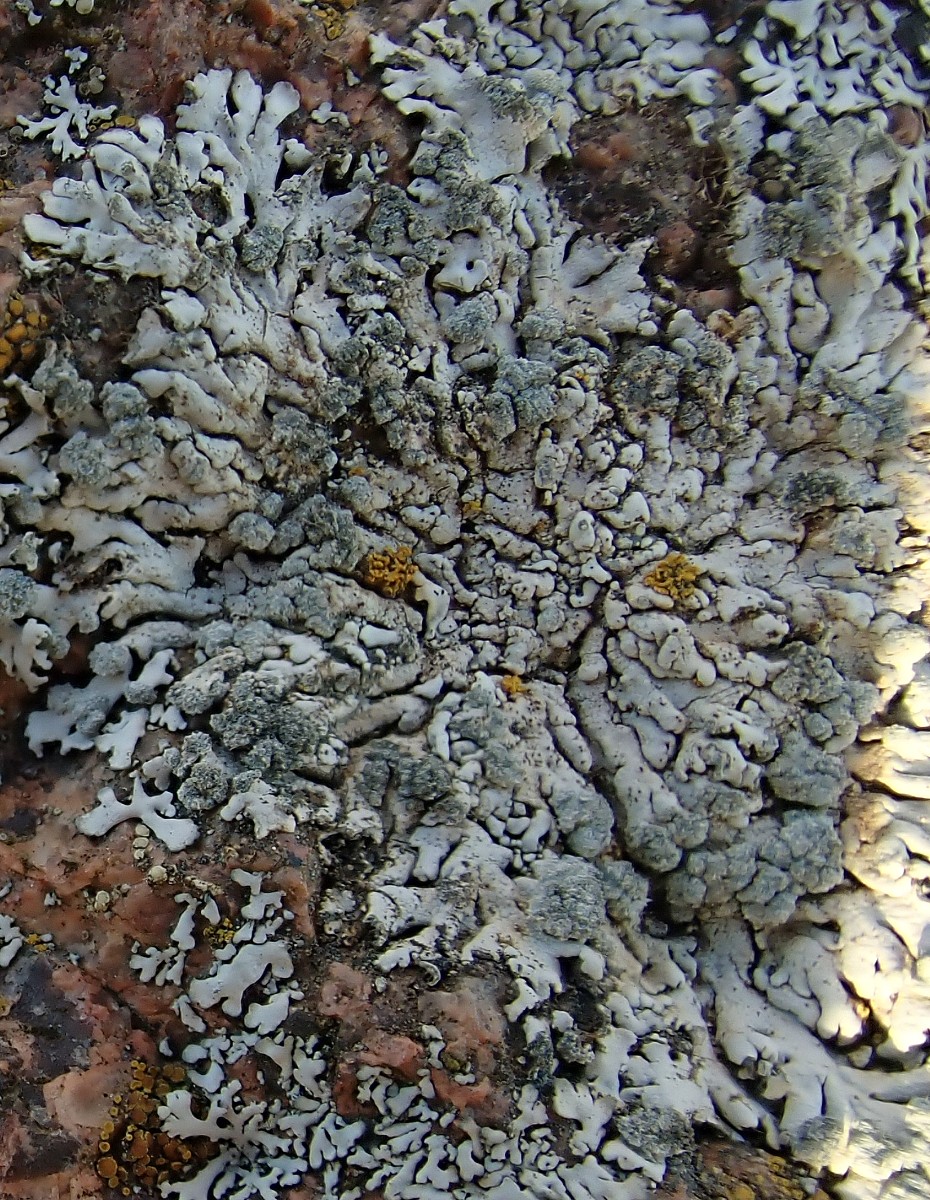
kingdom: Fungi
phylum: Ascomycota
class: Lecanoromycetes
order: Caliciales
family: Physciaceae
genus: Physcia
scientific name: Physcia caesia
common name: blågrå rosetlav
